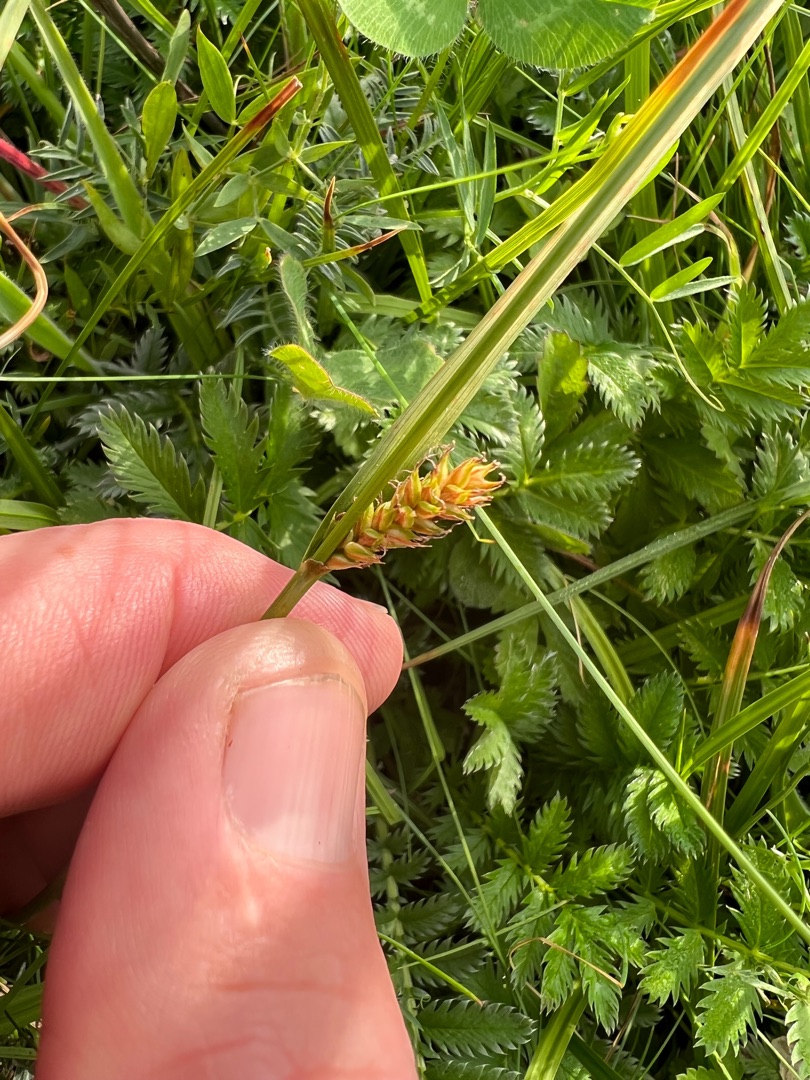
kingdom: Plantae
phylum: Tracheophyta
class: Liliopsida
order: Poales
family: Cyperaceae
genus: Carex
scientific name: Carex distans
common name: Fjernakset star
